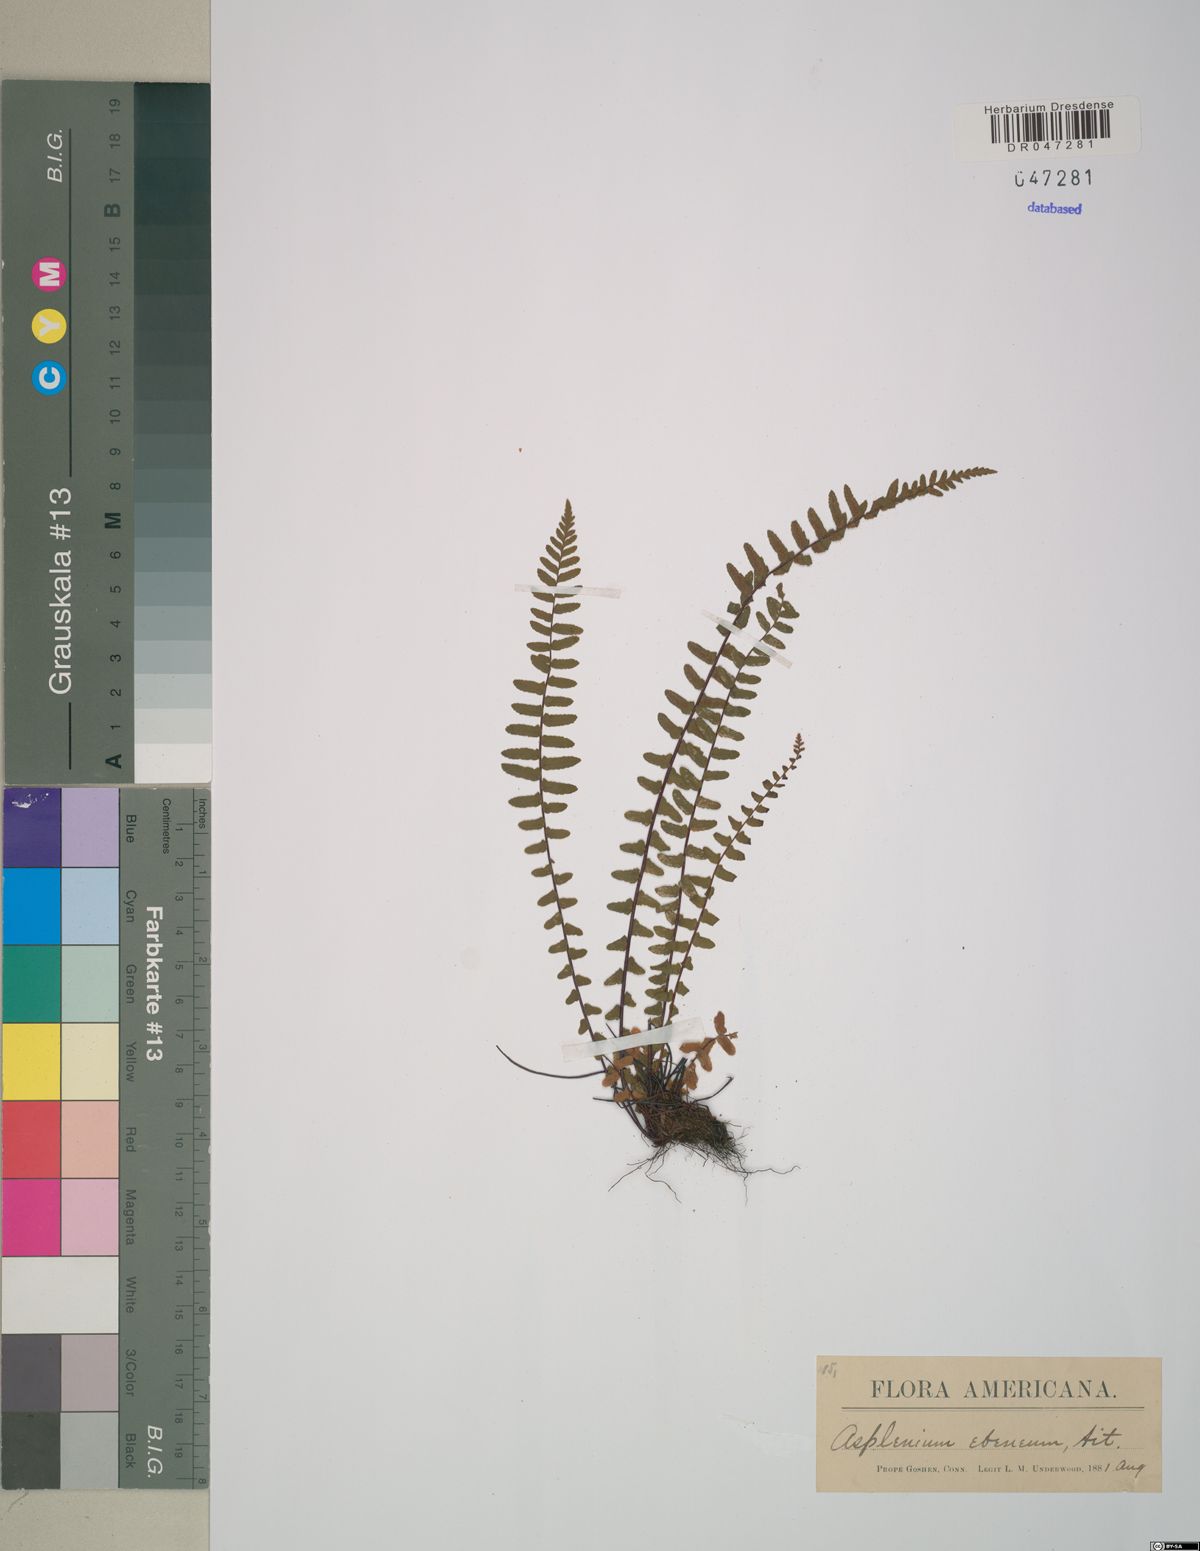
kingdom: Plantae
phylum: Tracheophyta
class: Polypodiopsida
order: Polypodiales
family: Aspleniaceae
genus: Asplenium
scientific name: Asplenium platyneuron
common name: Ebony spleenwort
